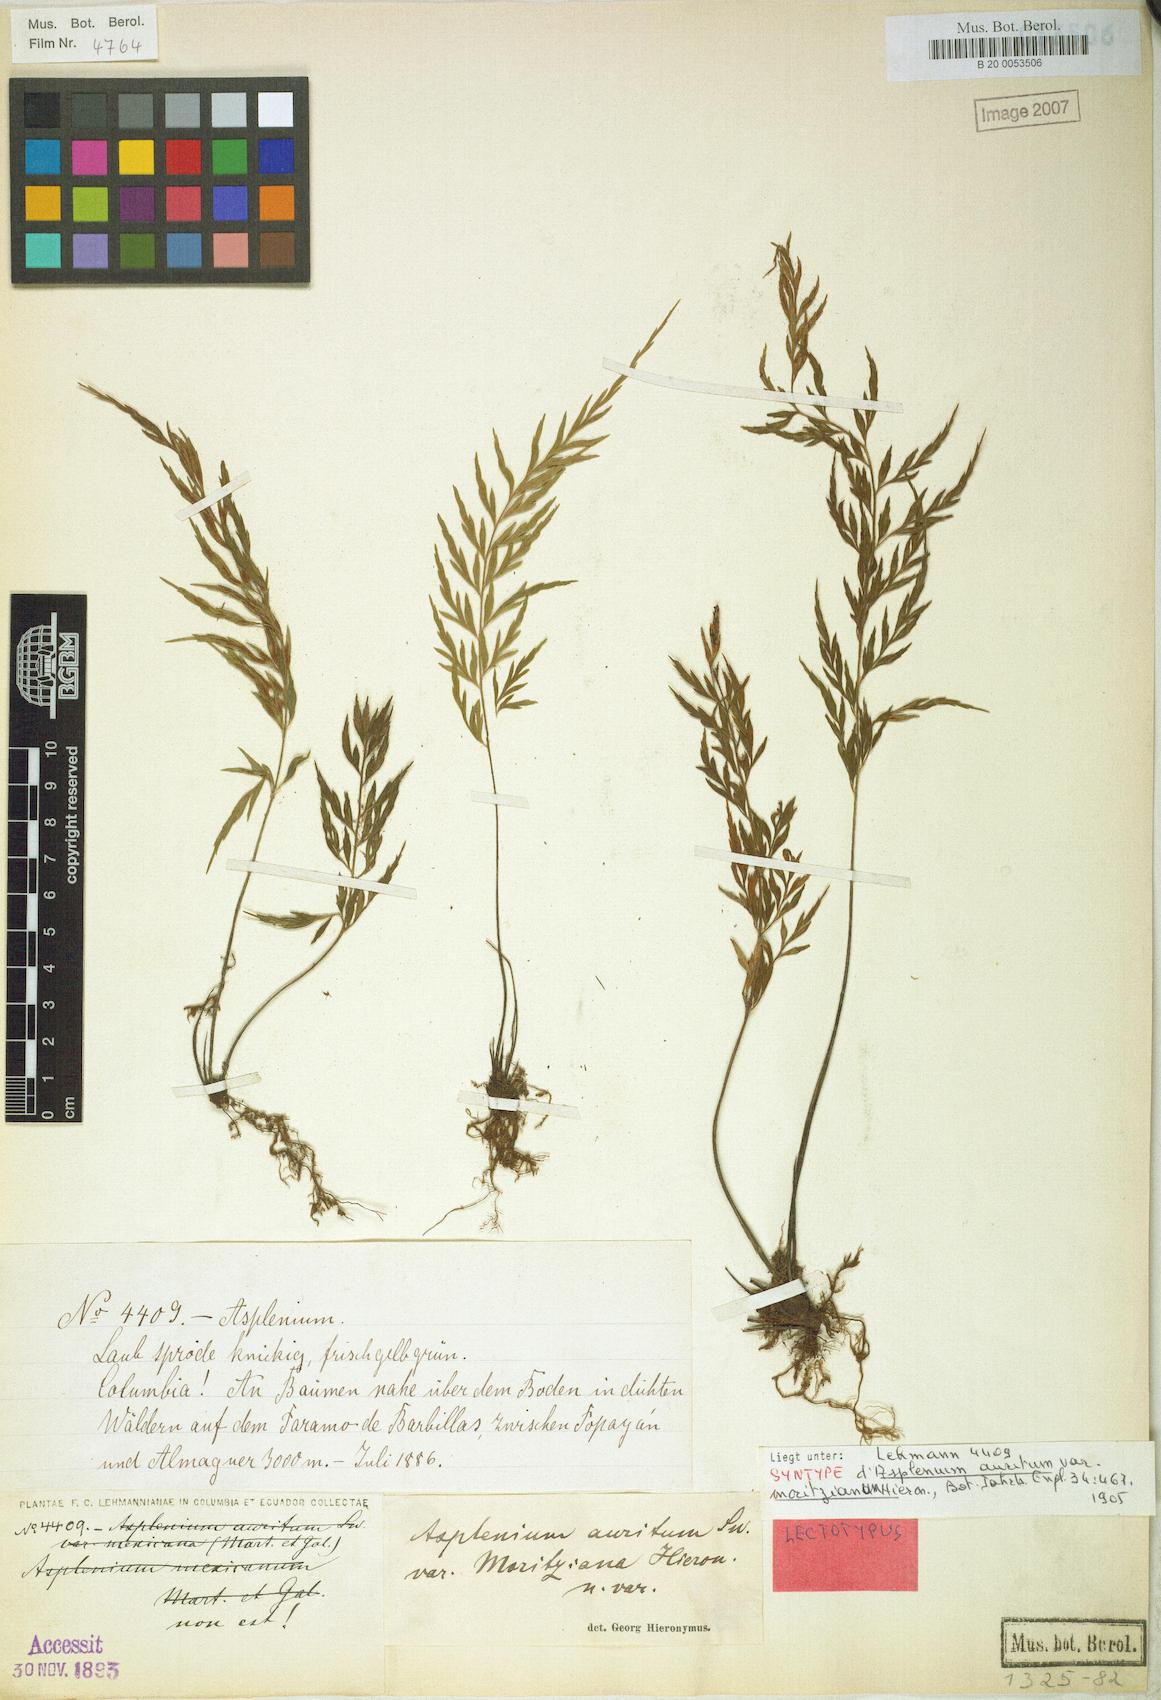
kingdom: Plantae
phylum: Tracheophyta
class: Polypodiopsida
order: Polypodiales
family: Aspleniaceae
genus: Asplenium
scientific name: Asplenium auritum
